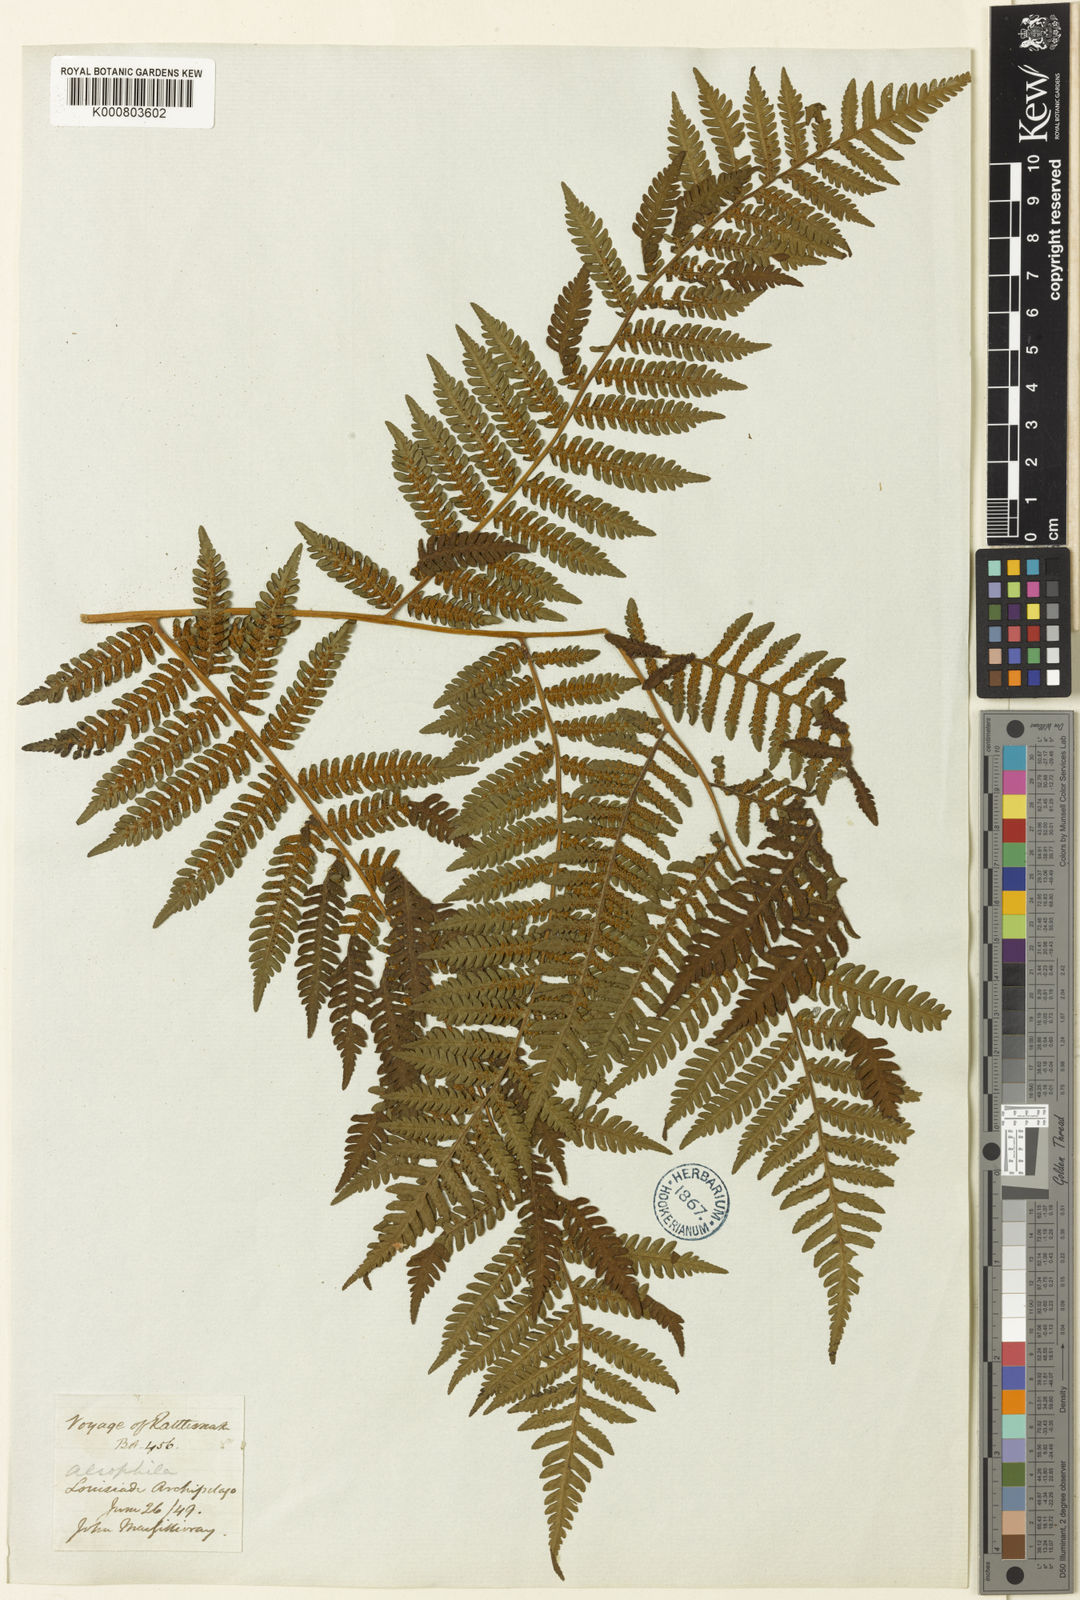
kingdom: Plantae
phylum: Tracheophyta
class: Polypodiopsida
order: Cyatheales
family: Cyatheaceae
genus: Sphaeropteris
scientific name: Sphaeropteris felina
